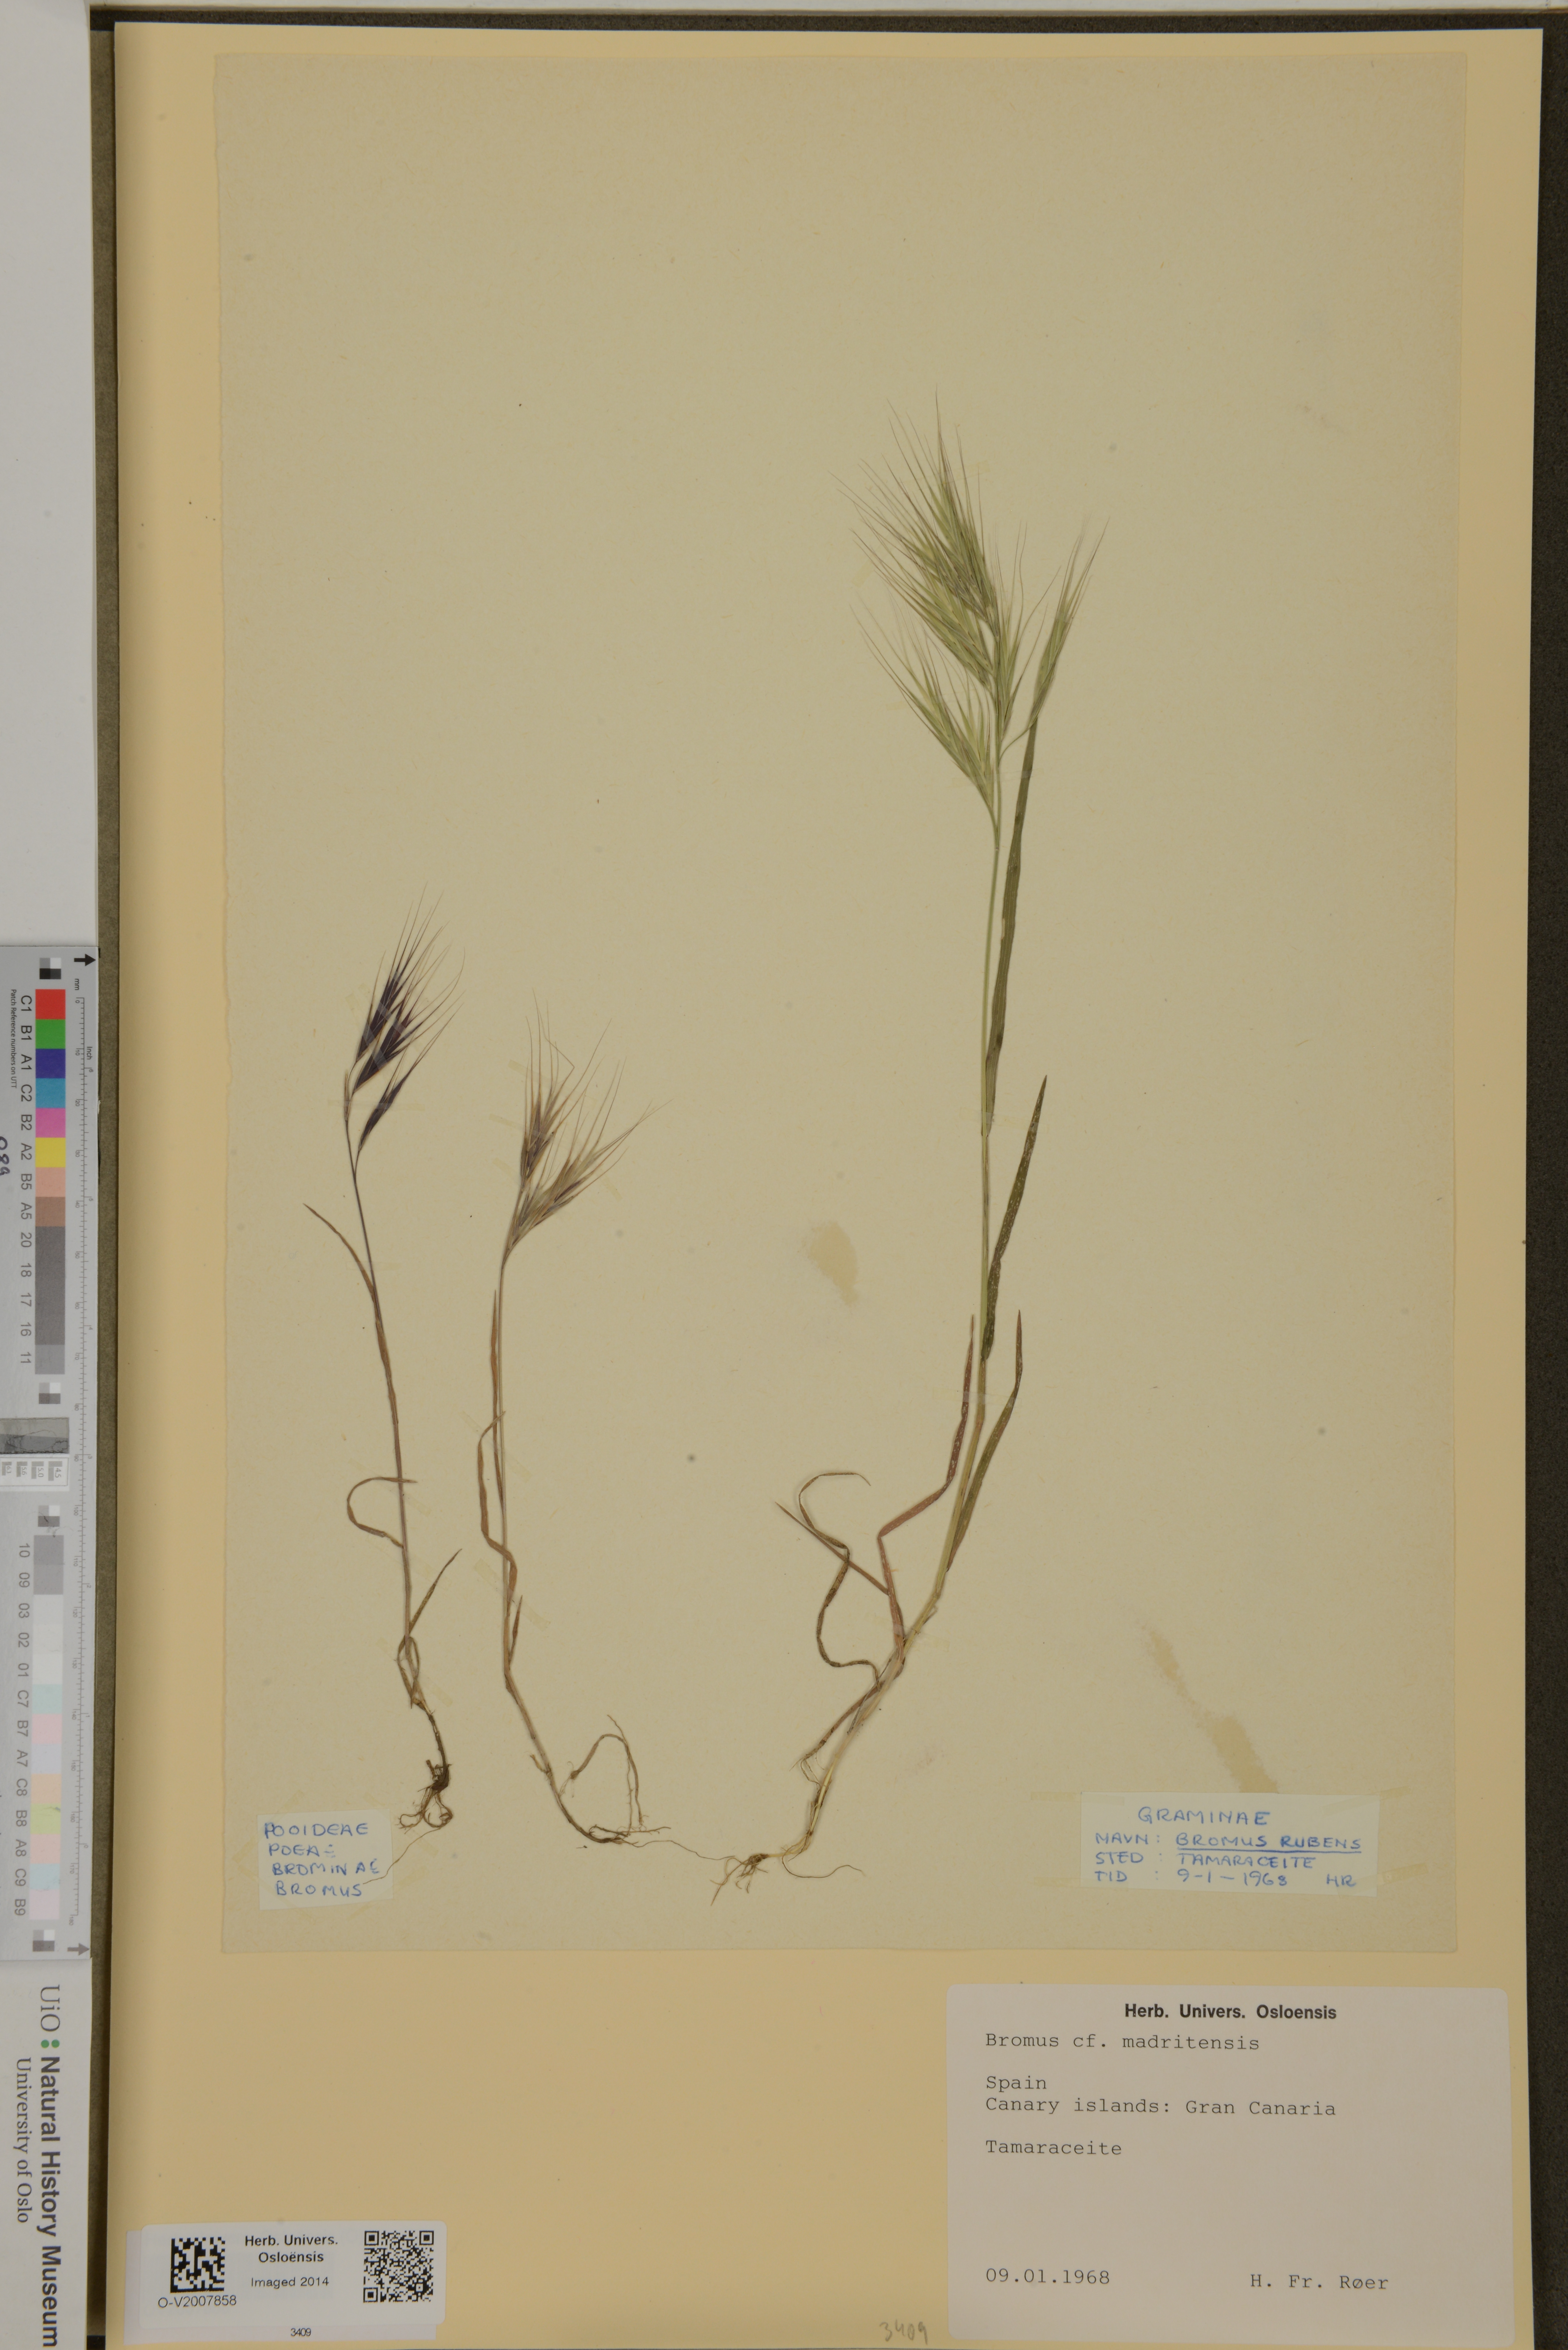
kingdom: Plantae
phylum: Tracheophyta
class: Liliopsida
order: Poales
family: Poaceae
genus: Bromus
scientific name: Bromus madritensis
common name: Compact brome
